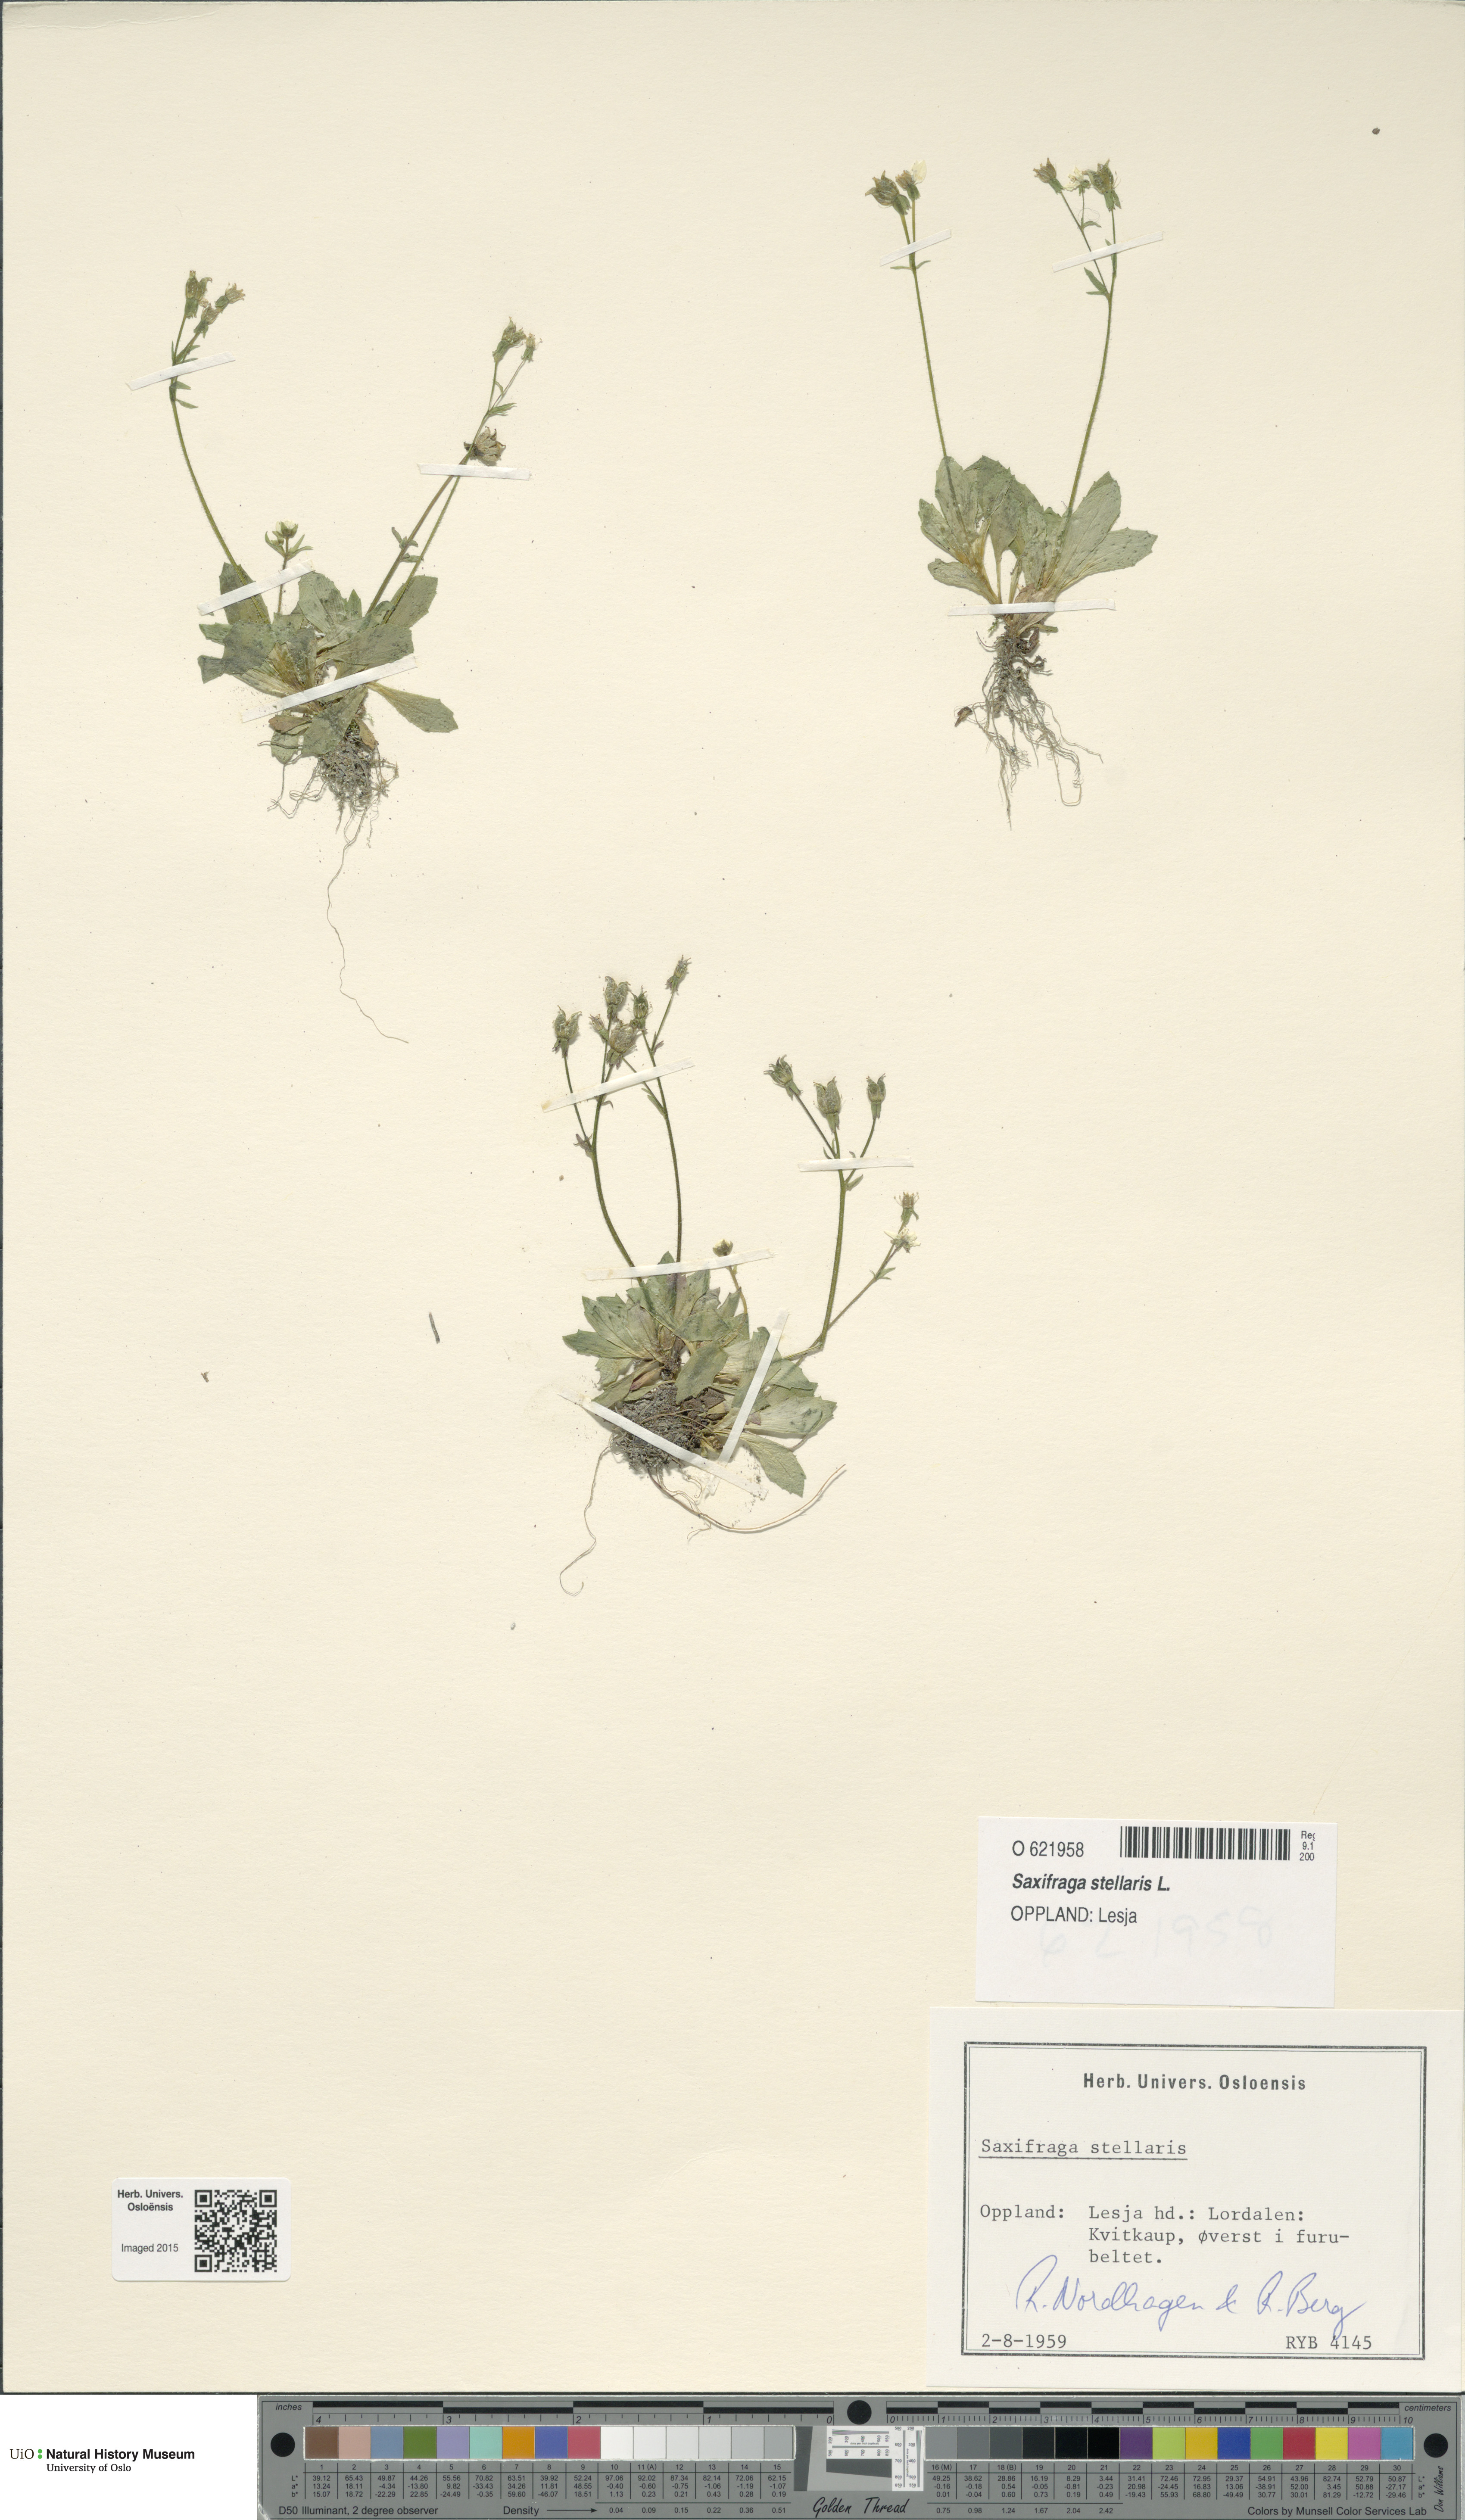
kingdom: Plantae
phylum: Tracheophyta
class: Magnoliopsida
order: Saxifragales
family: Saxifragaceae
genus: Micranthes
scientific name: Micranthes stellaris
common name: Starry saxifrage
